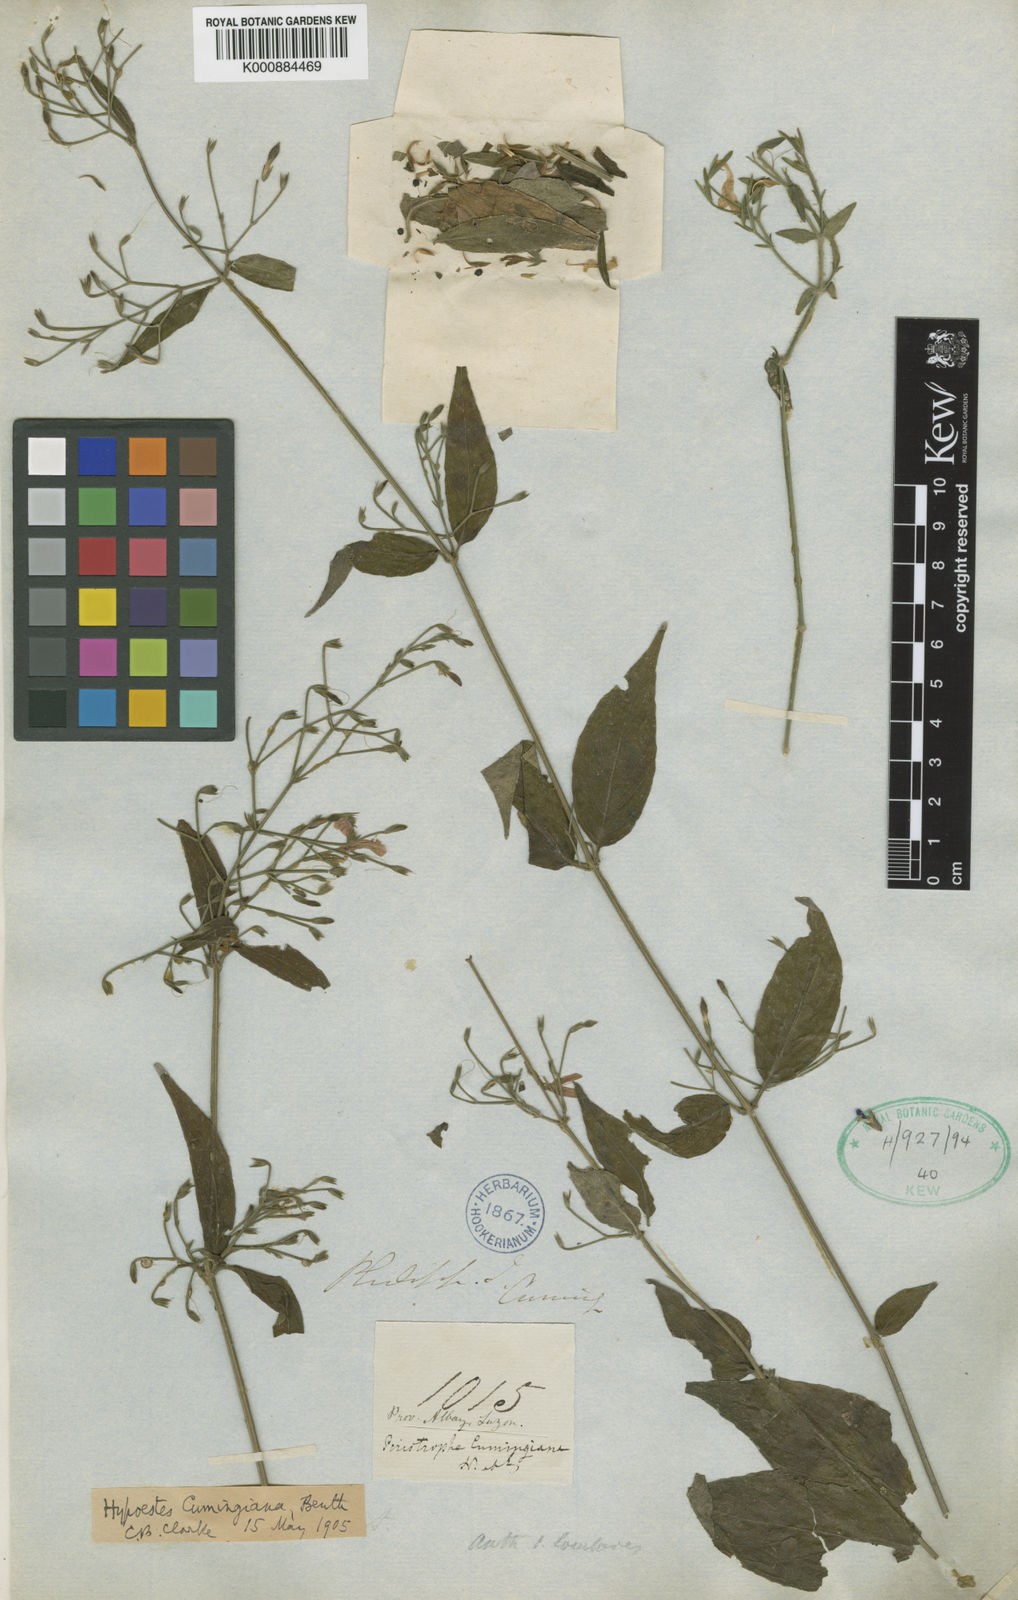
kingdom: Plantae
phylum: Tracheophyta
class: Magnoliopsida
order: Lamiales
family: Acanthaceae
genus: Hypoestes
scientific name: Hypoestes cumingiana
